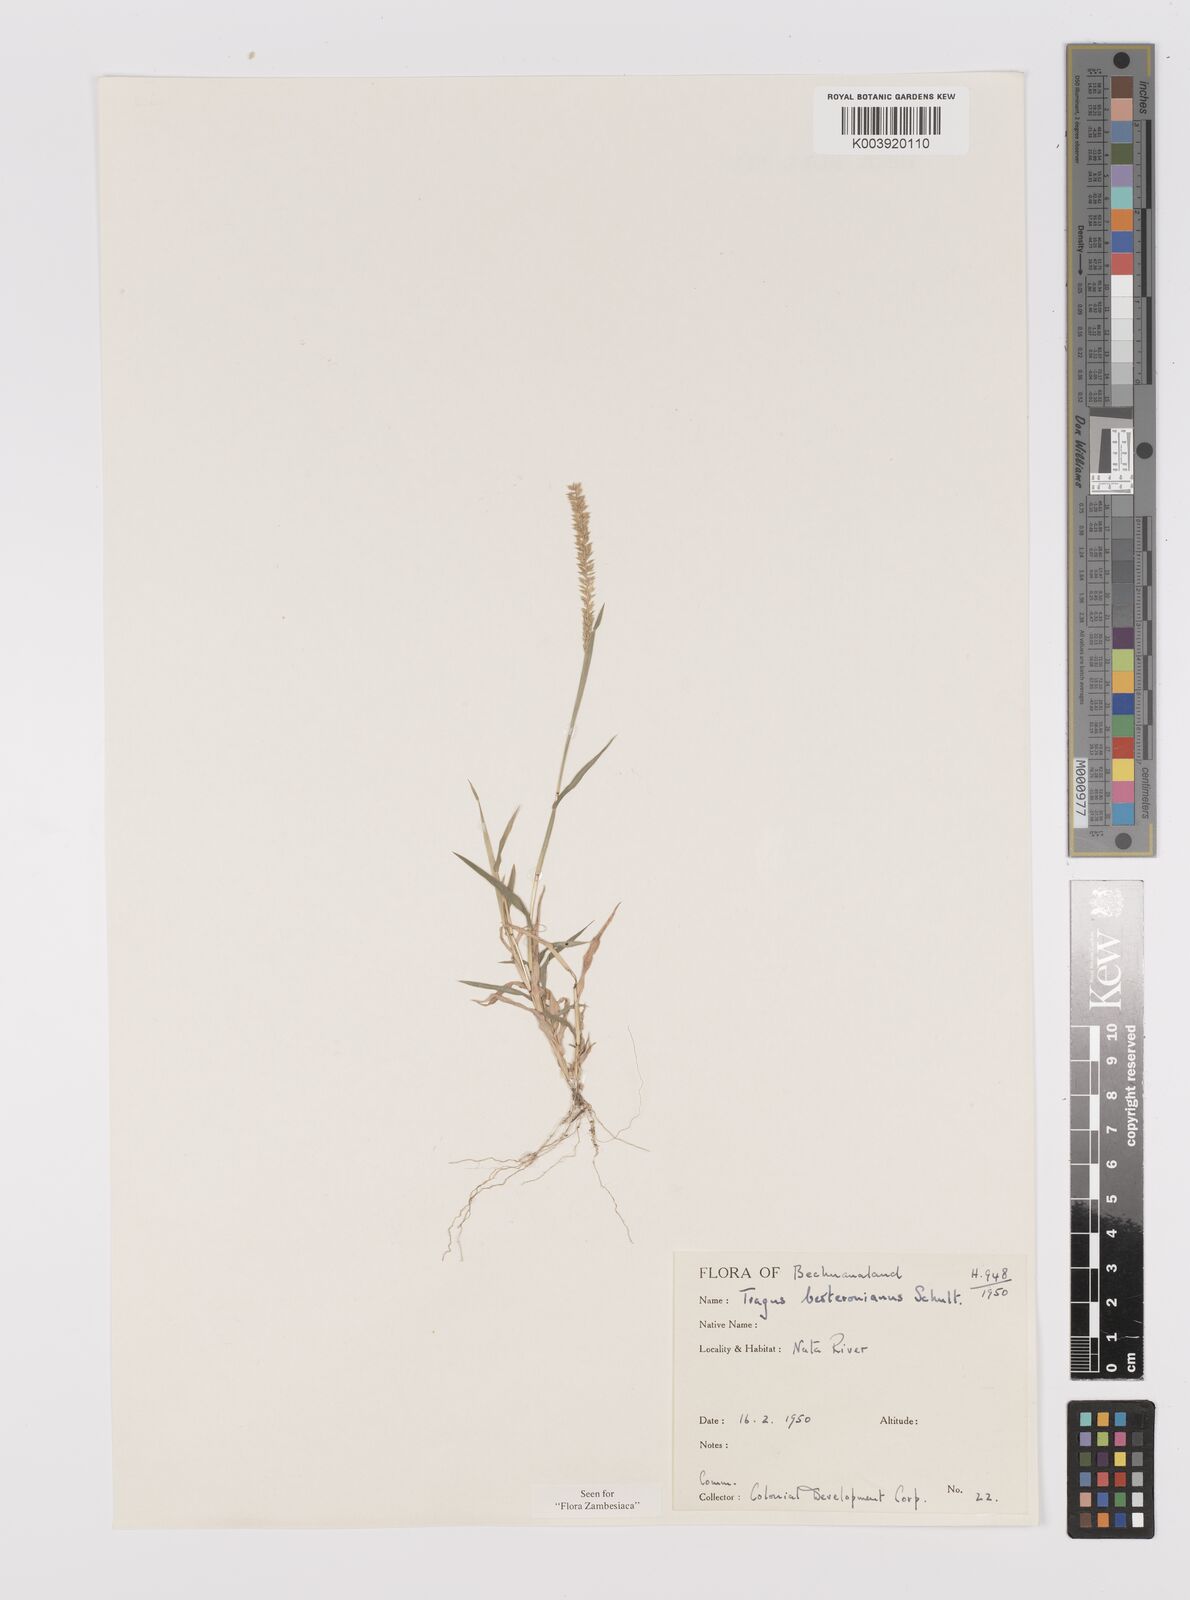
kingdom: Plantae
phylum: Tracheophyta
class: Liliopsida
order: Poales
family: Poaceae
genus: Tragus
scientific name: Tragus berteronianus
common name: African bur-grass
